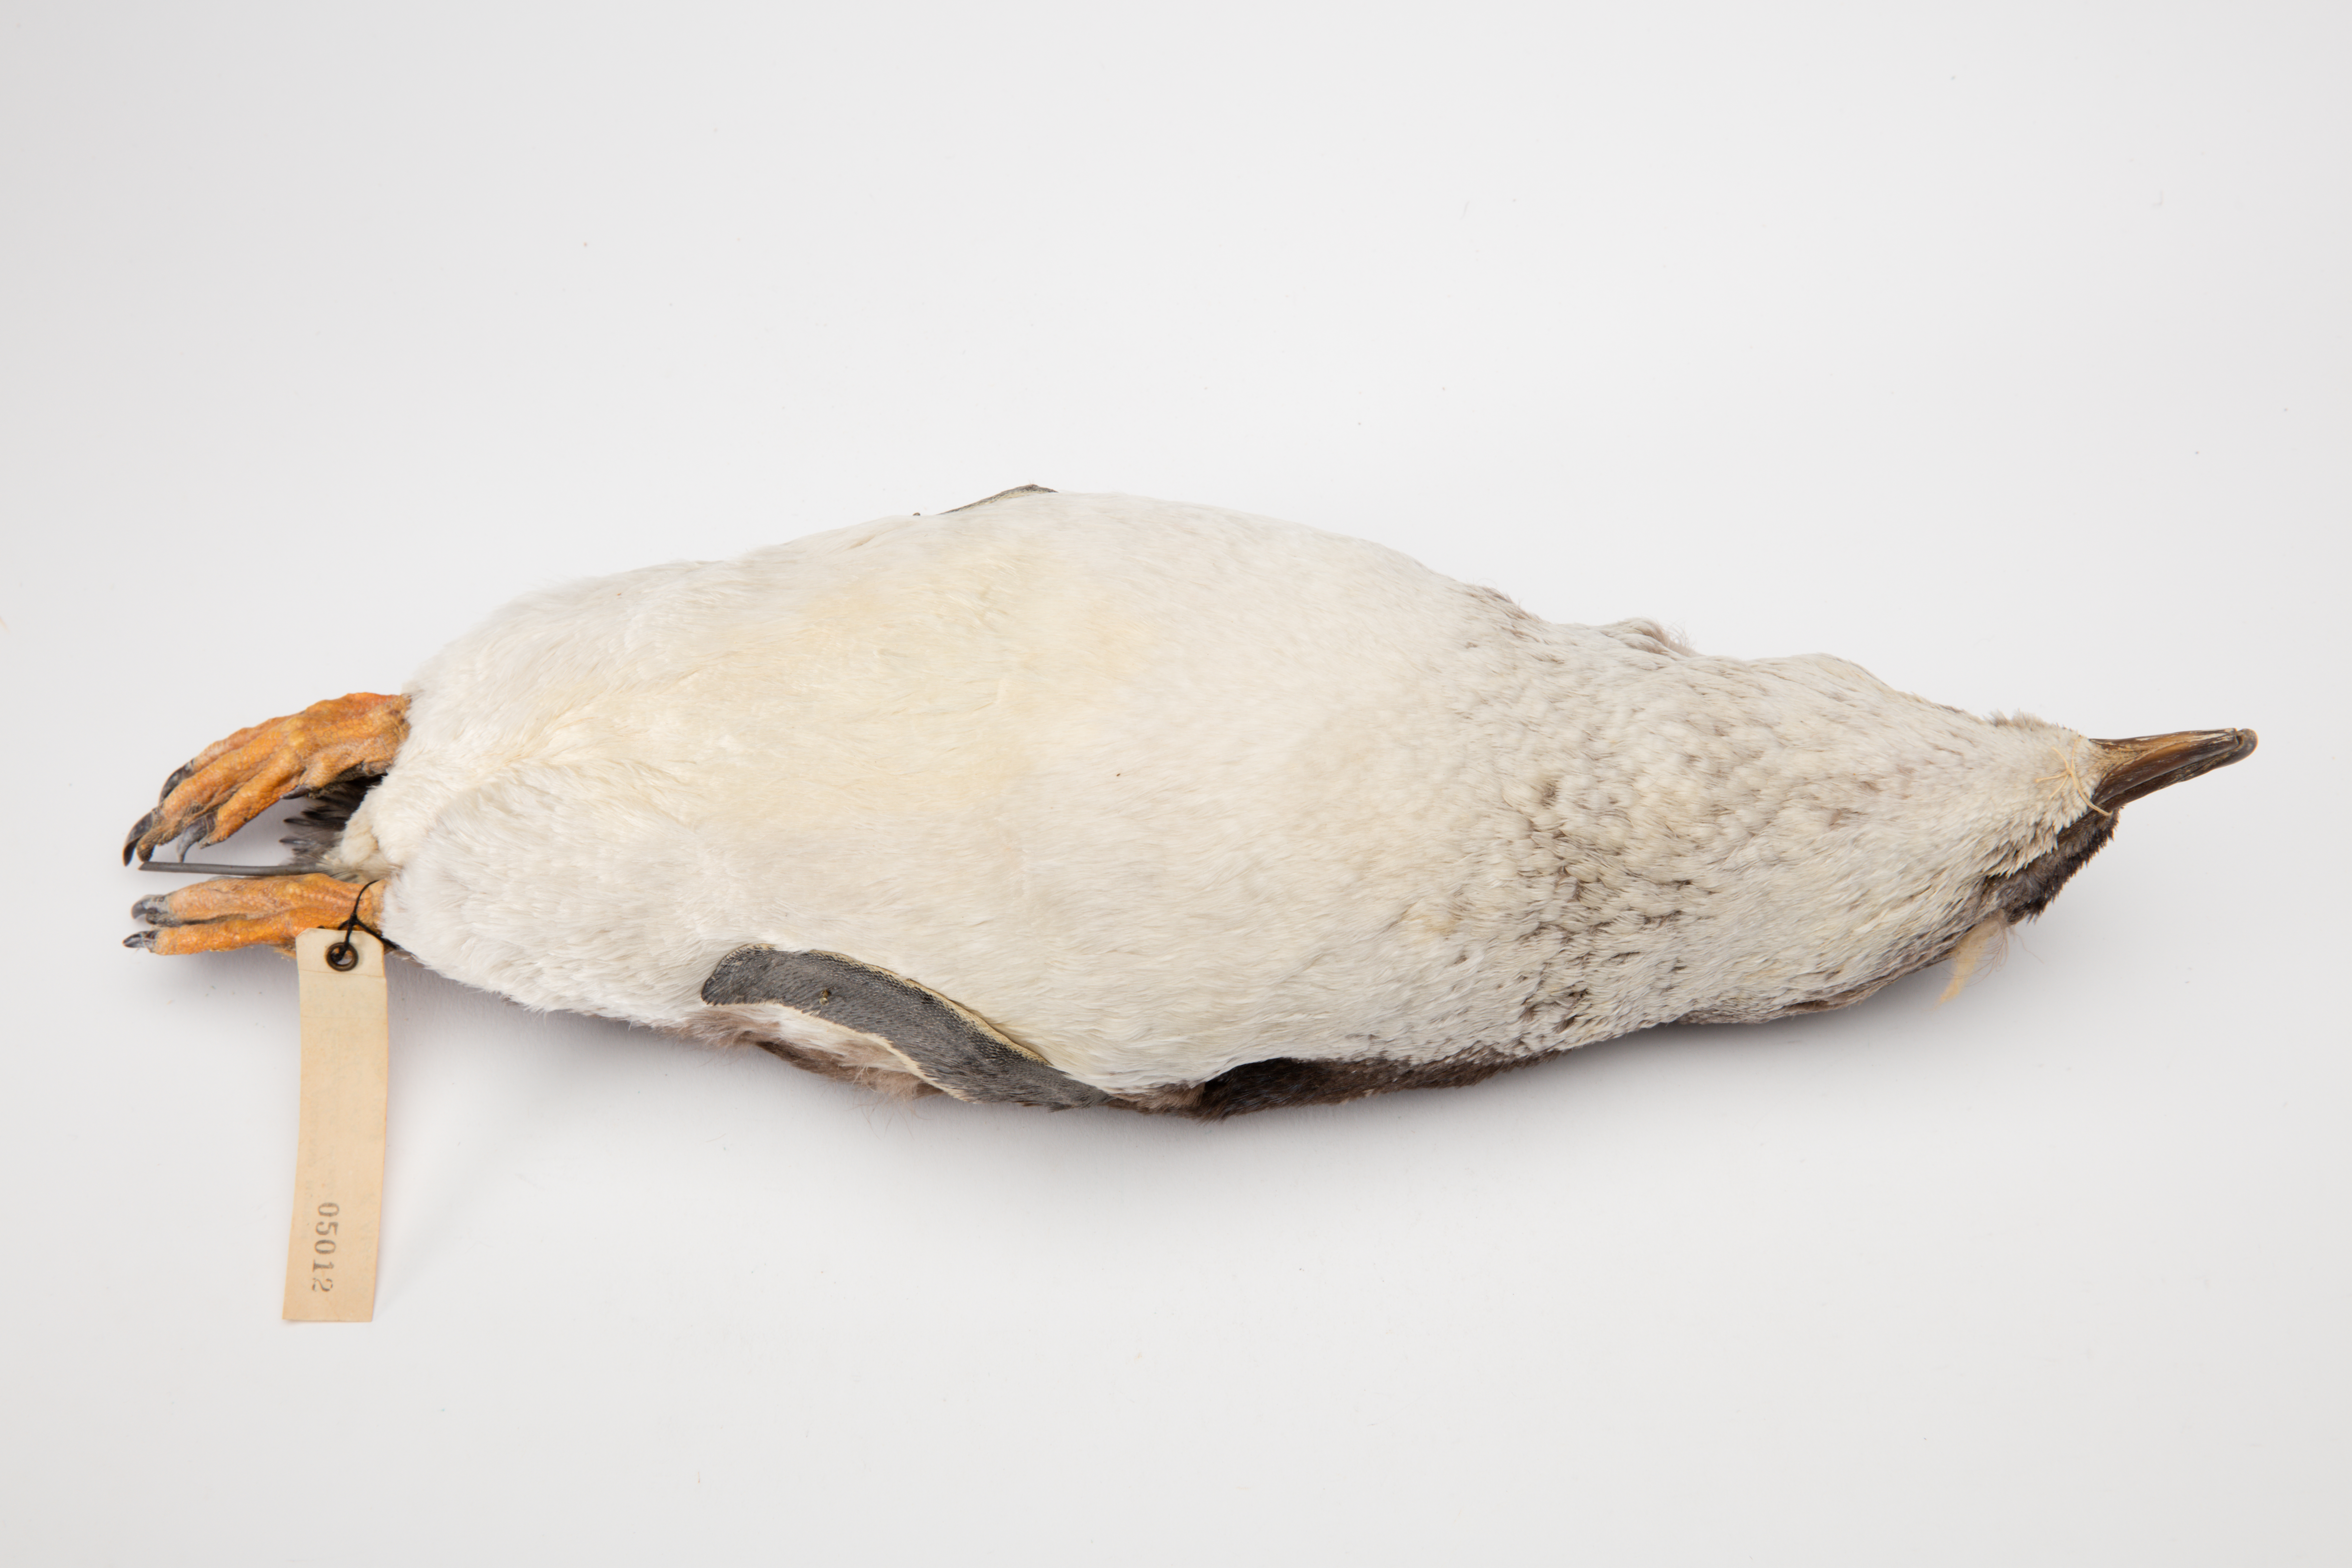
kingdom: Animalia
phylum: Chordata
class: Aves
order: Sphenisciformes
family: Spheniscidae
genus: Eudyptula
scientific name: Eudyptula minor
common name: Little penguin
